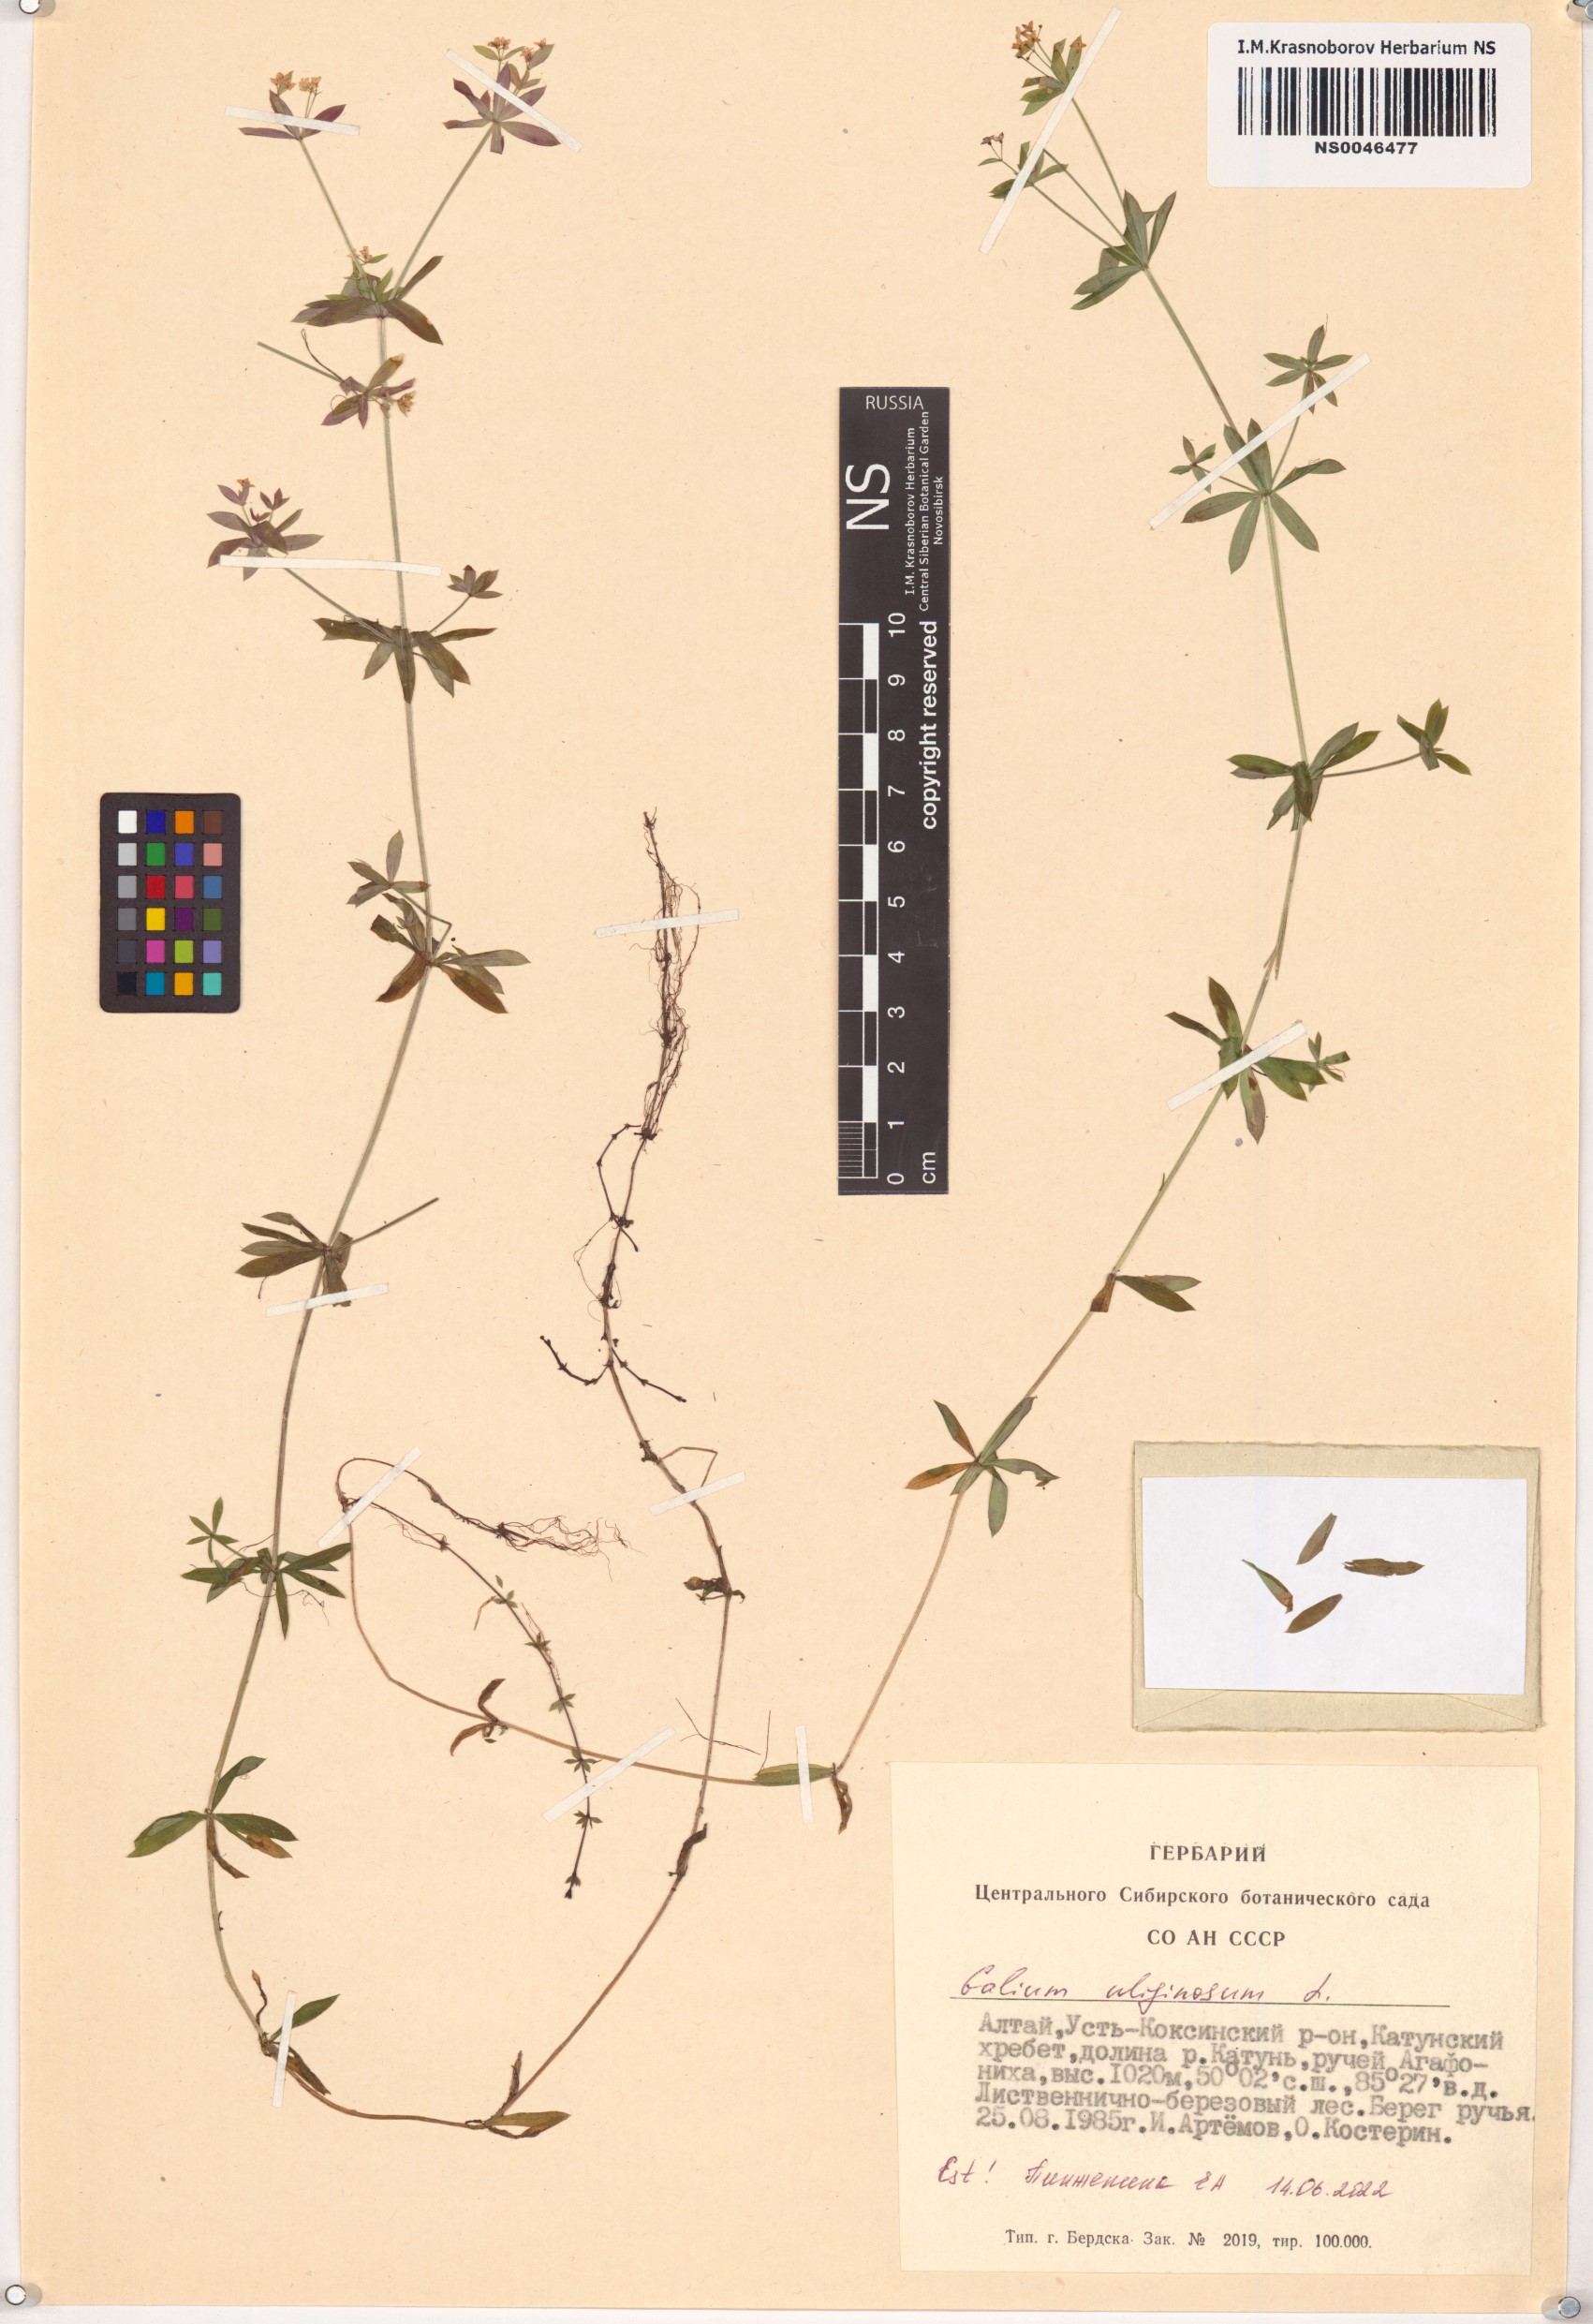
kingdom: Plantae
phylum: Tracheophyta
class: Magnoliopsida
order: Gentianales
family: Rubiaceae
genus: Galium
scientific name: Galium uliginosum
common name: Fen bedstraw
